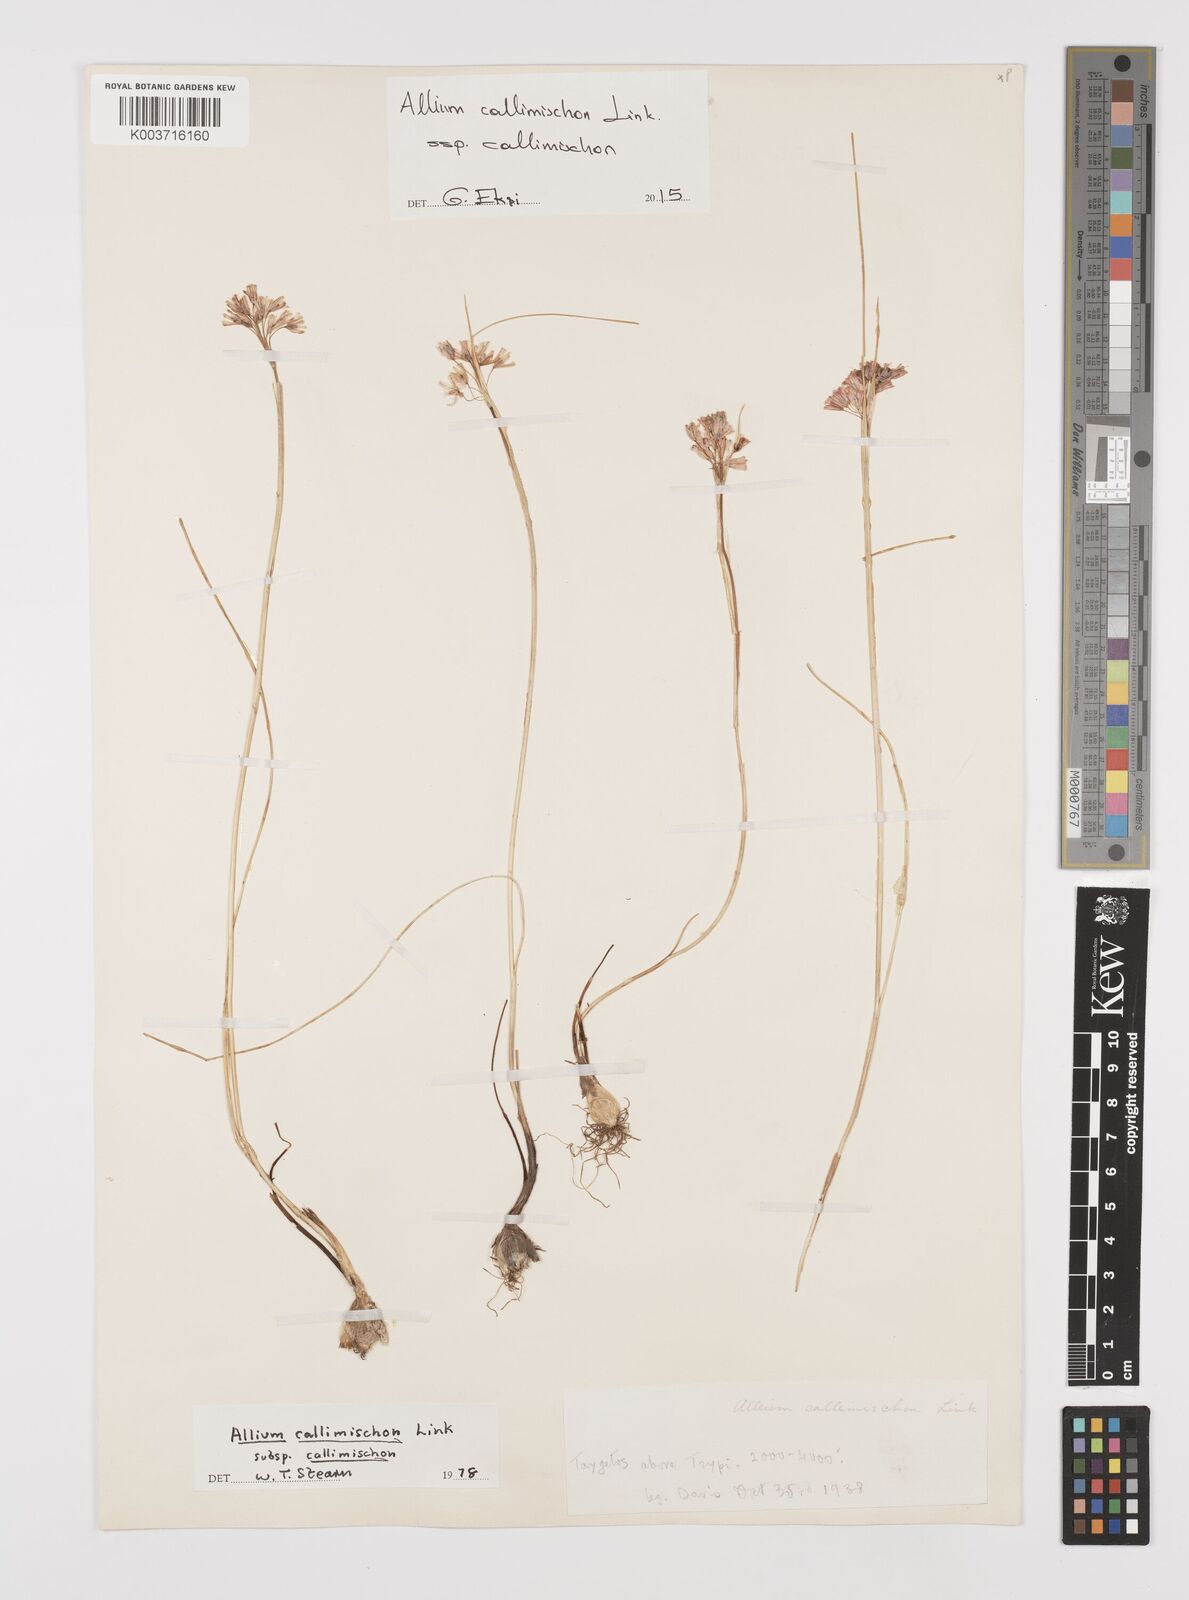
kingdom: Plantae
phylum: Tracheophyta
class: Liliopsida
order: Asparagales
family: Amaryllidaceae
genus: Allium
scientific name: Allium callimischon
